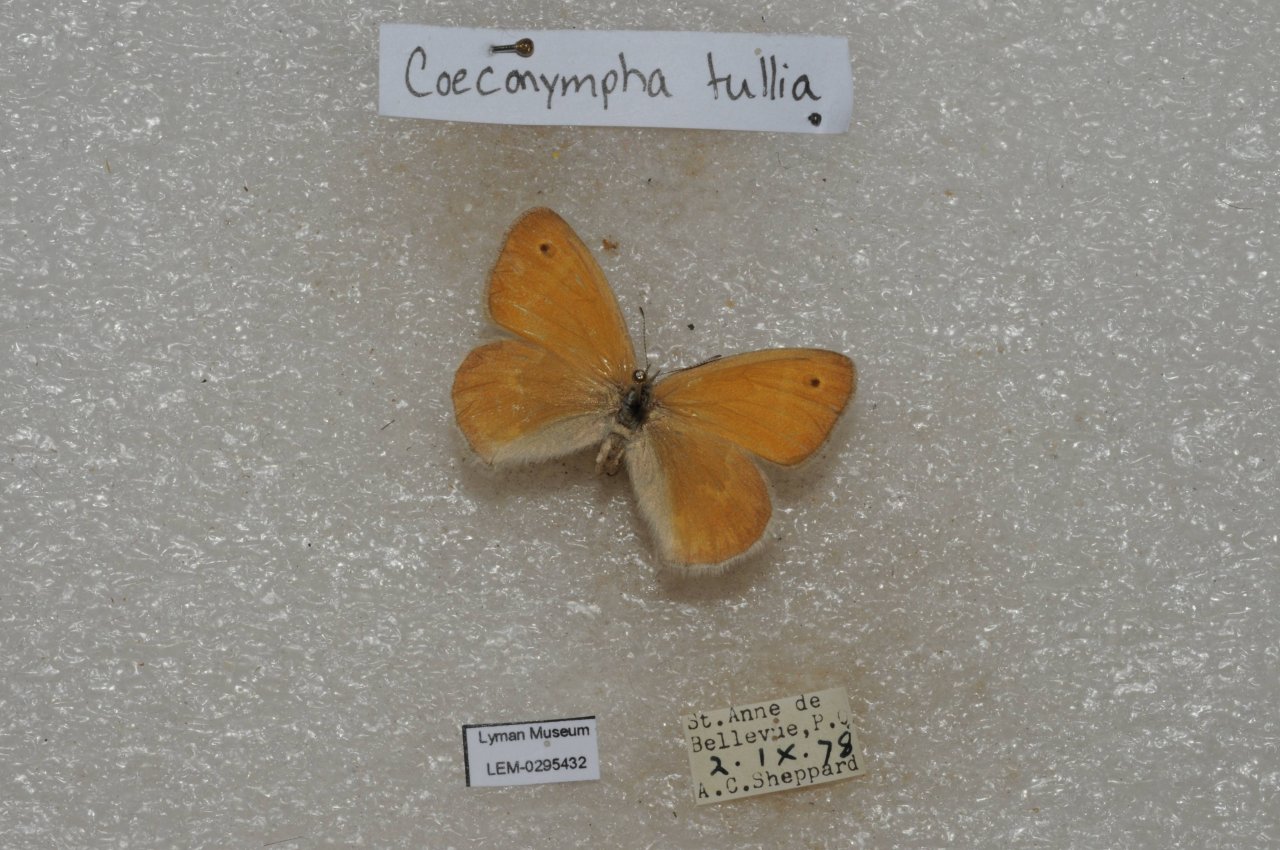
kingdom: Animalia
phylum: Arthropoda
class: Insecta
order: Lepidoptera
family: Nymphalidae
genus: Coenonympha
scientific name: Coenonympha tullia
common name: Large Heath
